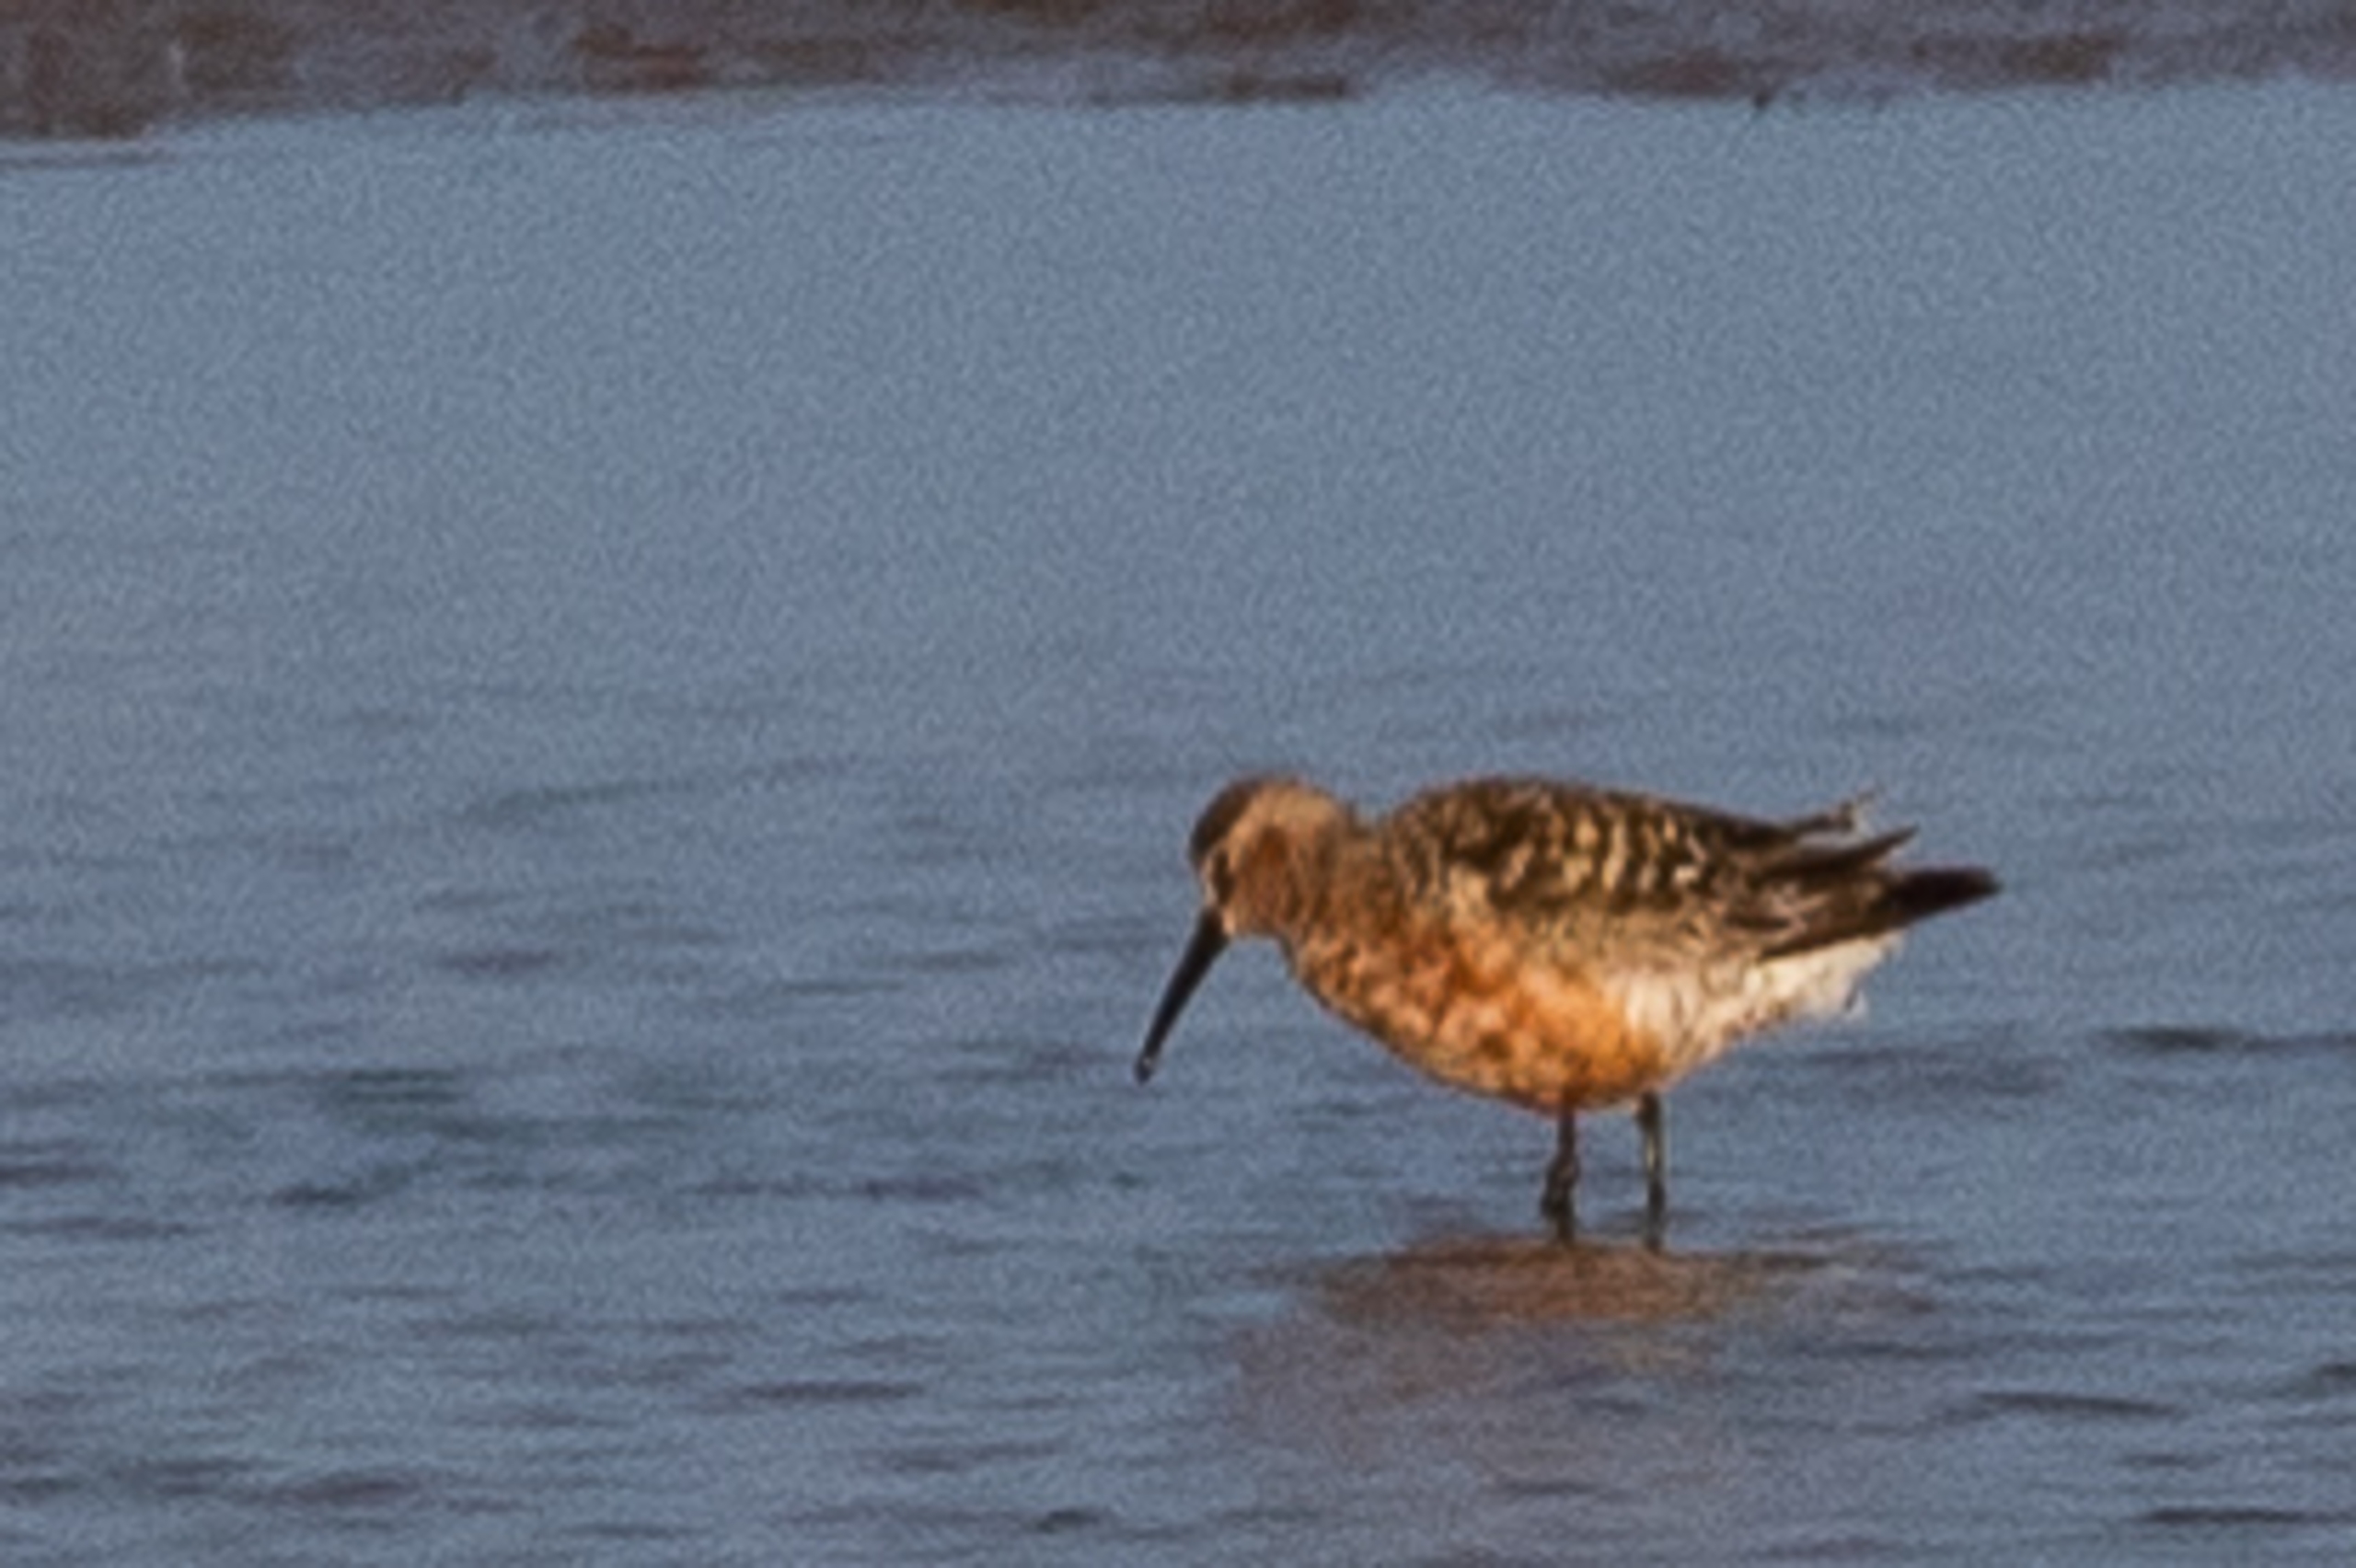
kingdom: Animalia
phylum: Chordata
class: Aves
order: Charadriiformes
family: Scolopacidae
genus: Calidris
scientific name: Calidris ferruginea
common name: Krumnæbbet ryle
